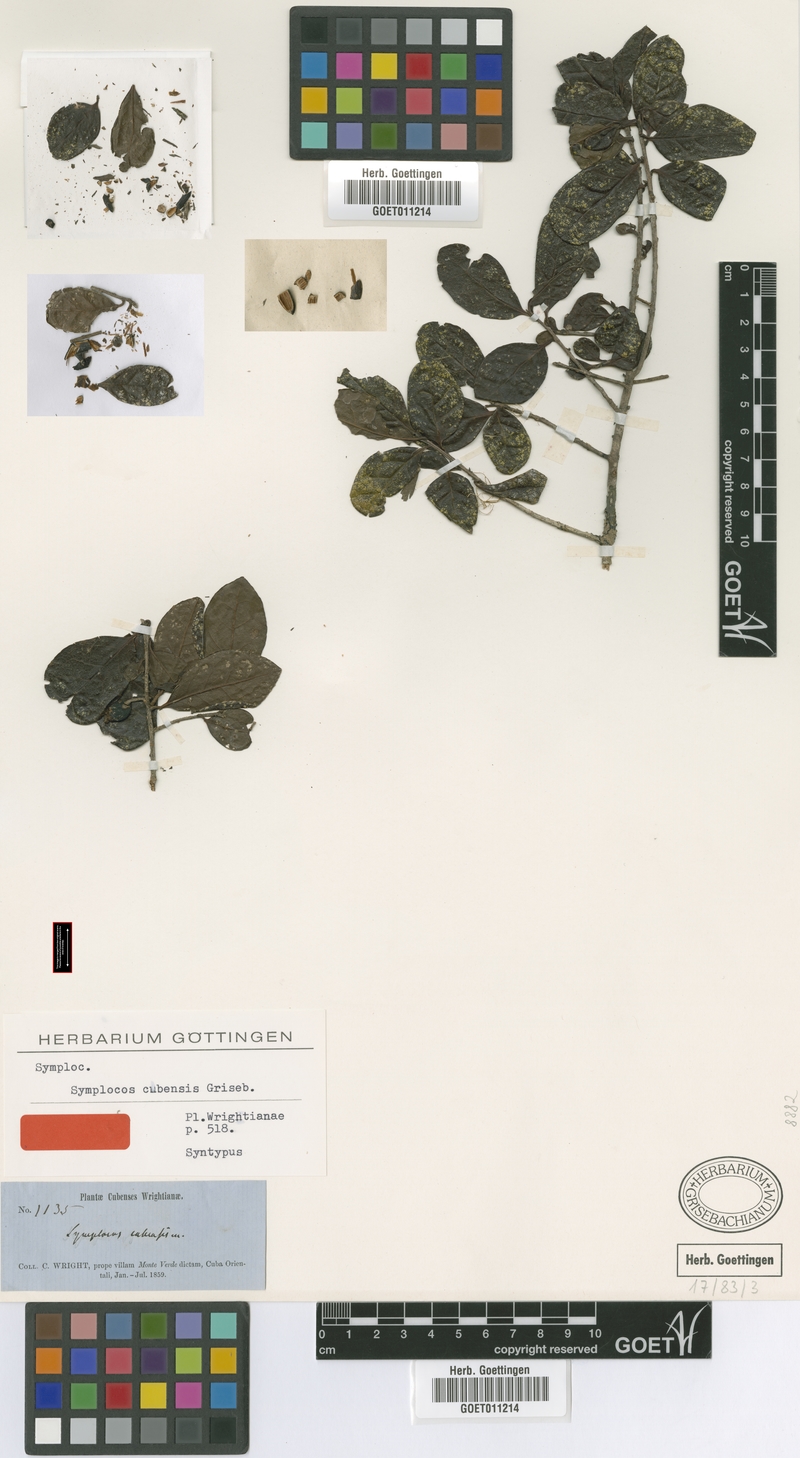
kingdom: Plantae
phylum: Tracheophyta
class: Magnoliopsida
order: Ericales
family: Symplocaceae
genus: Symplocos
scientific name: Symplocos cubensis
